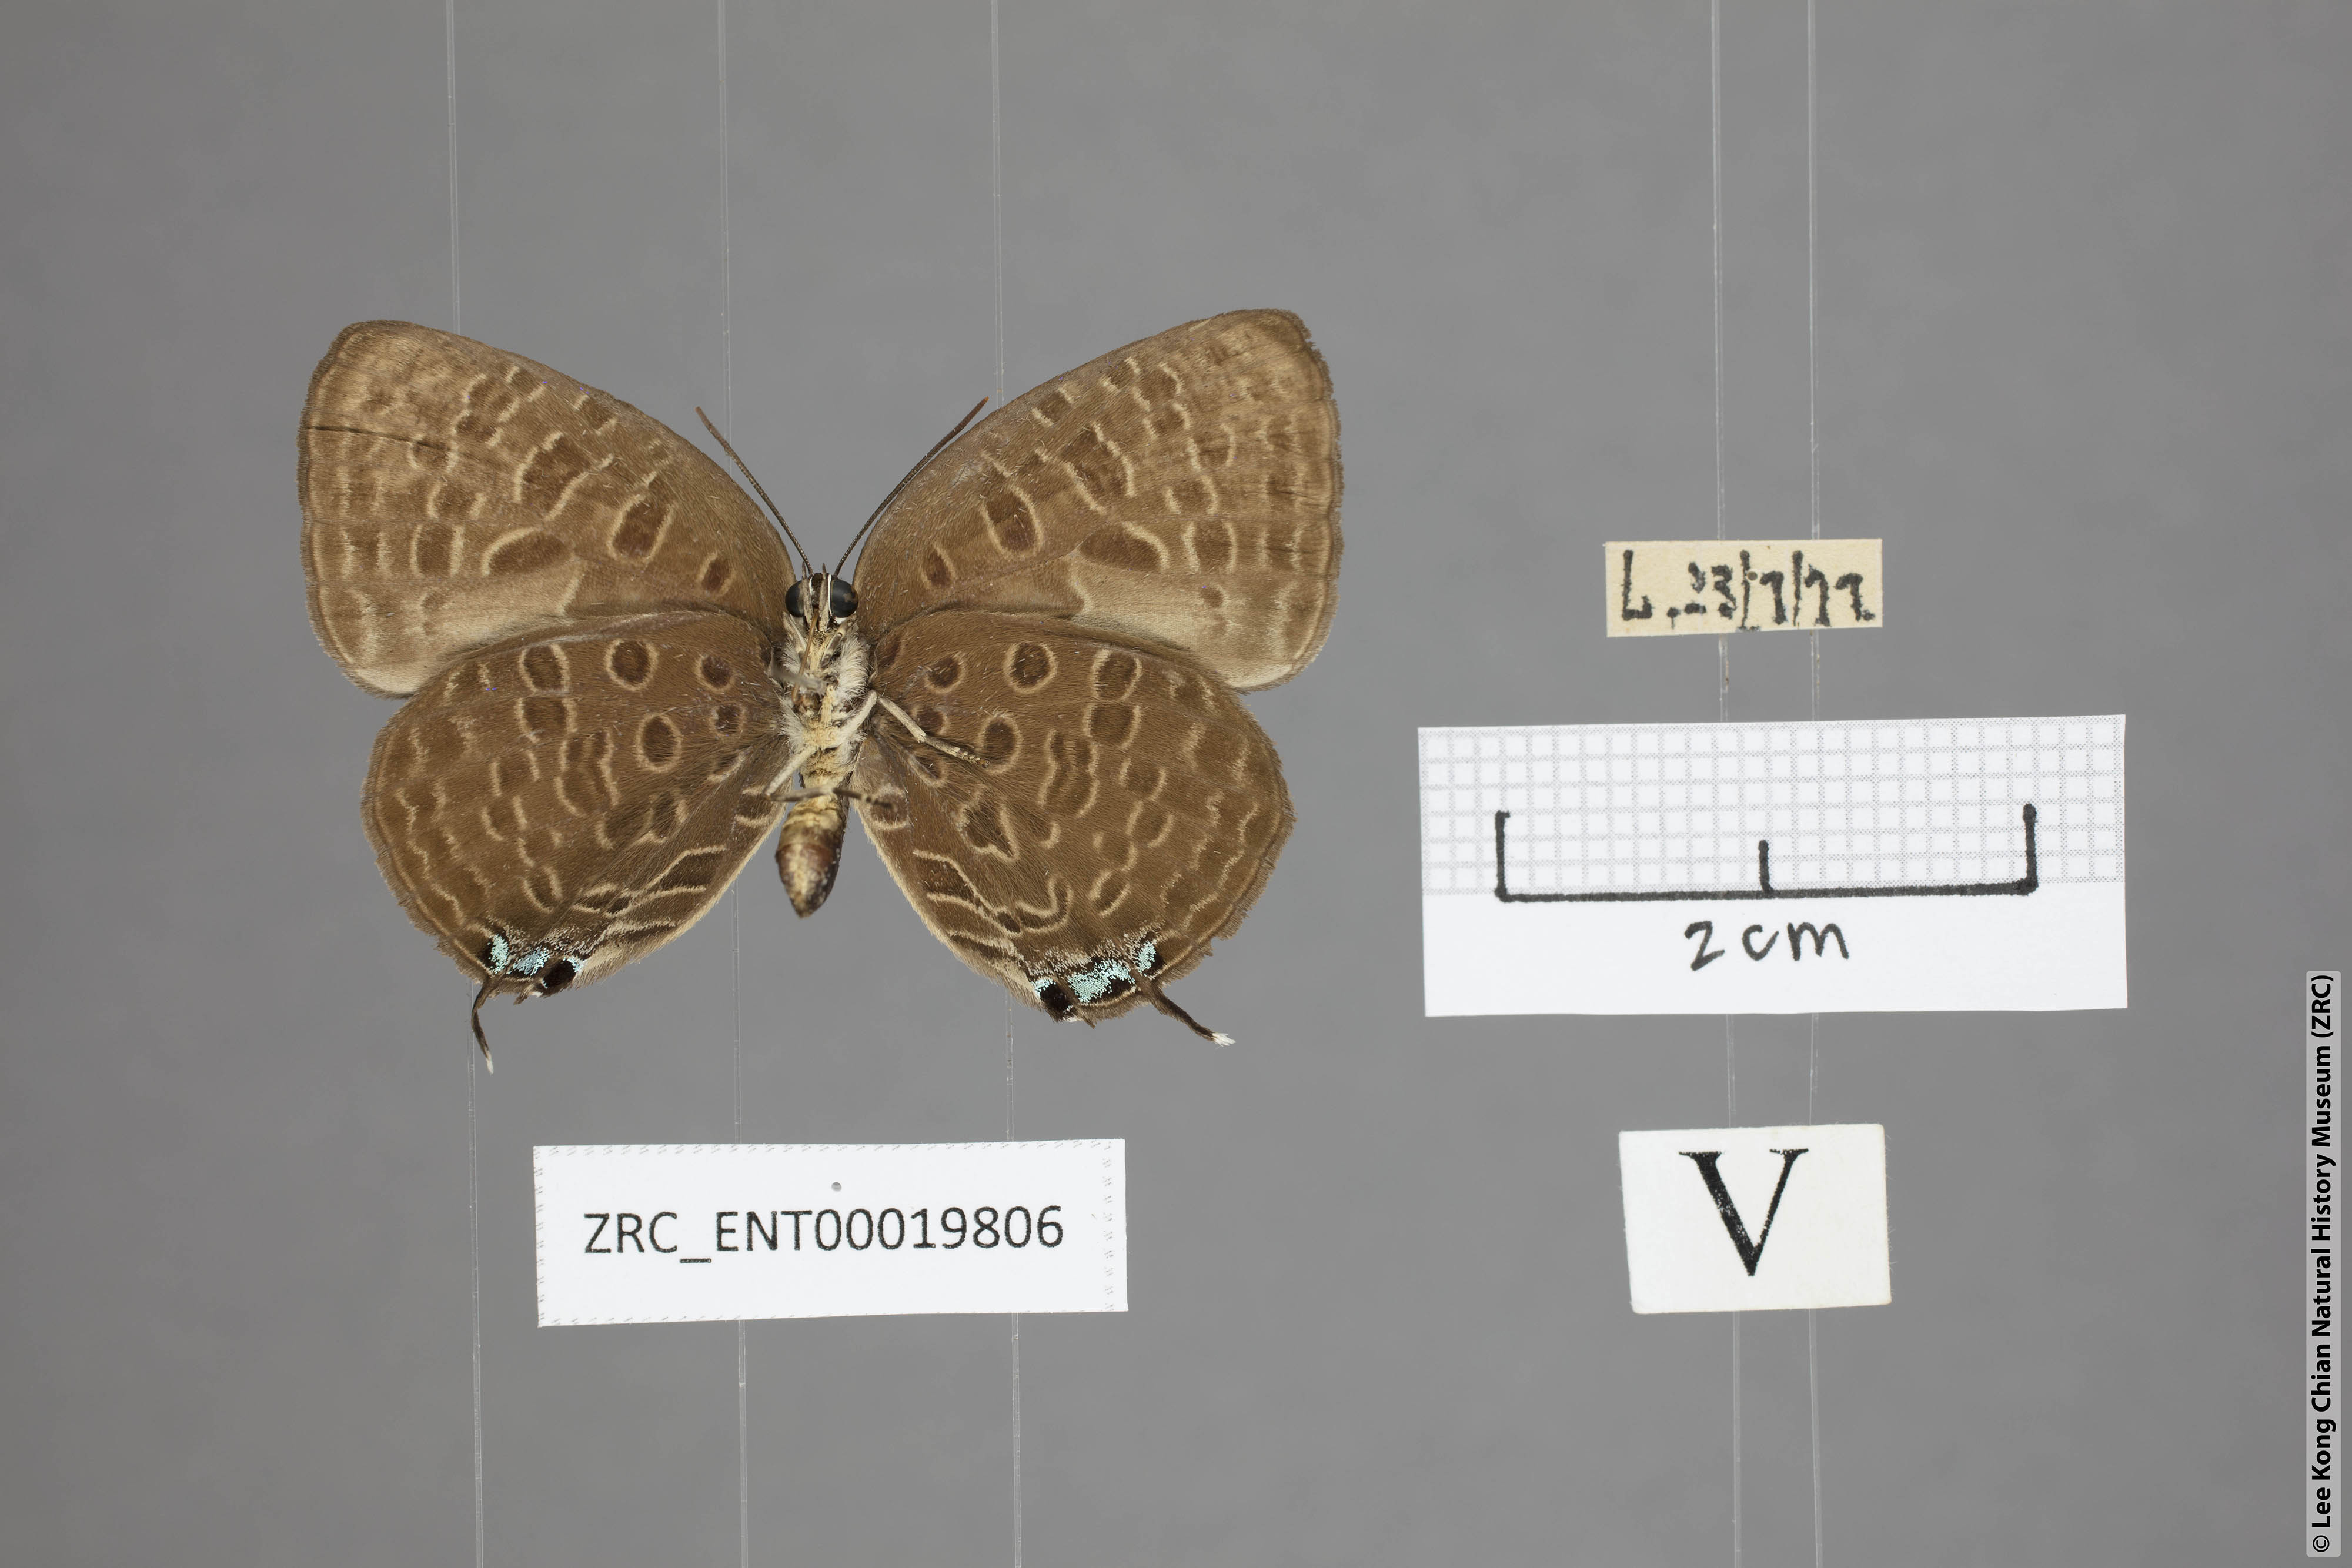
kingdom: Animalia
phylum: Arthropoda
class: Insecta
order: Lepidoptera
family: Lycaenidae
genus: Arhopala
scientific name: Arhopala pseudomuta
